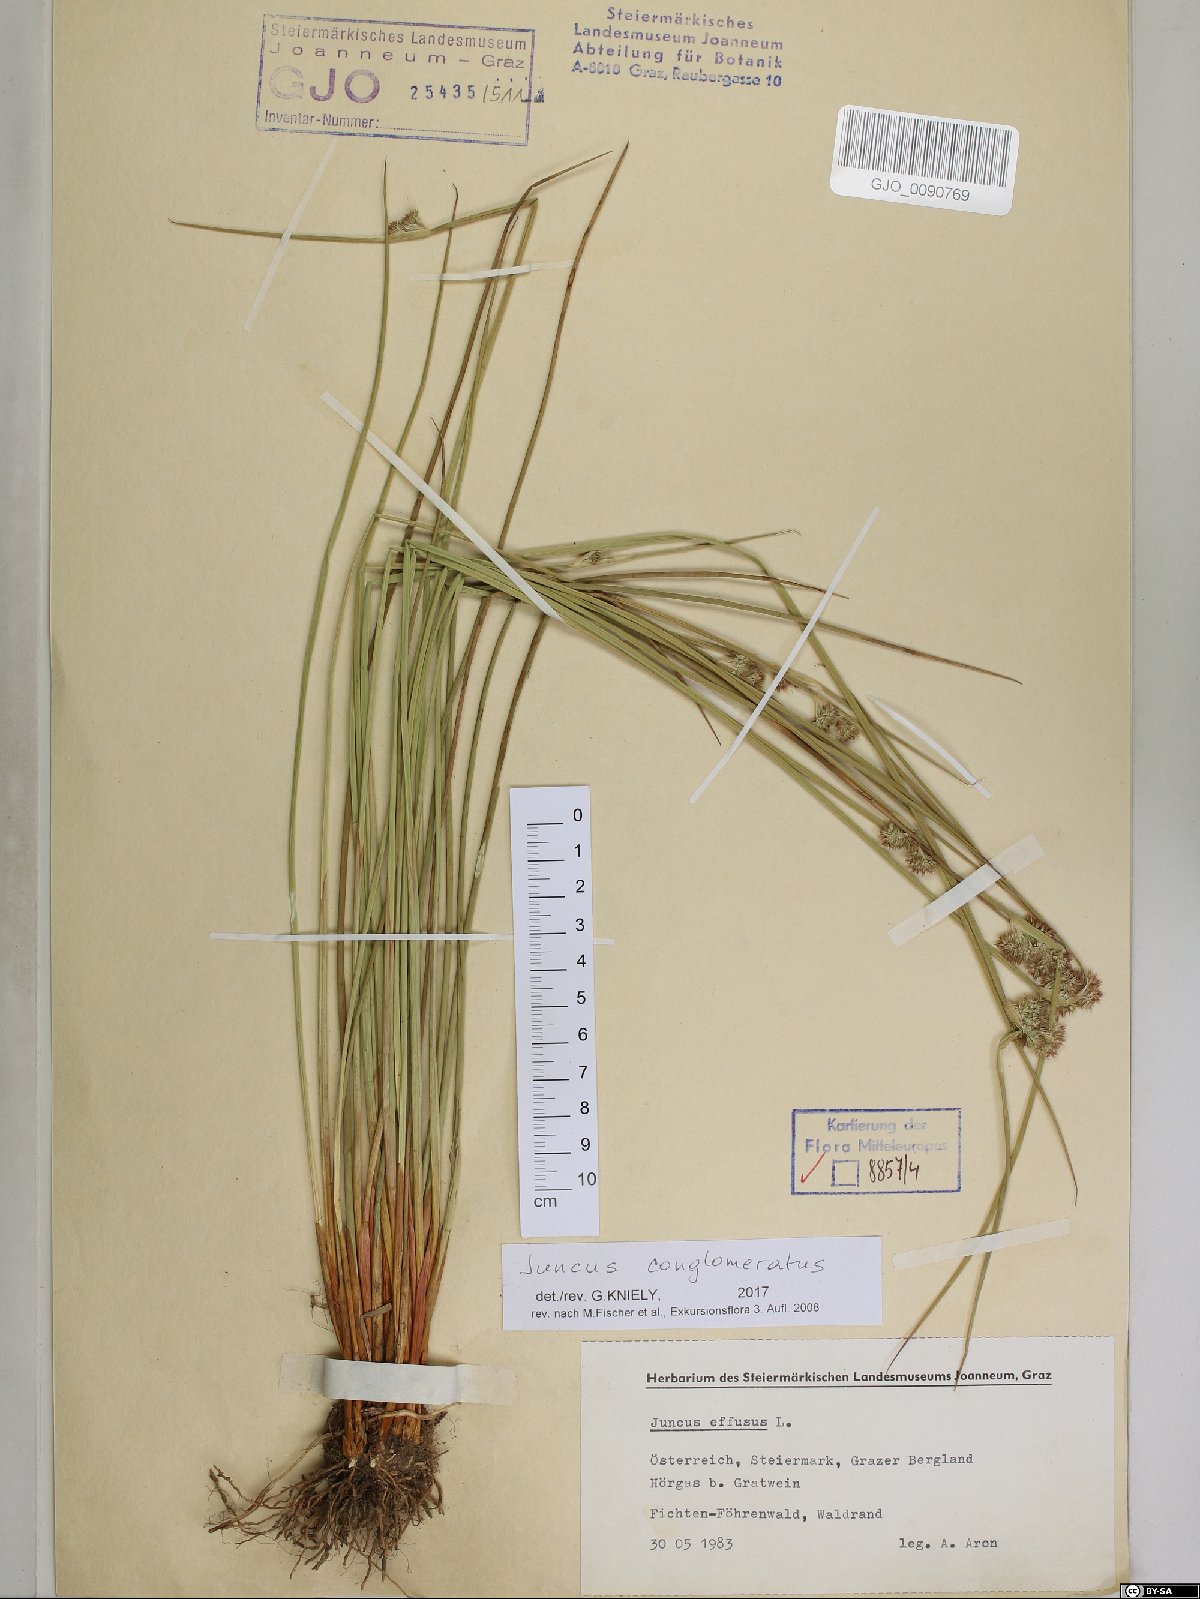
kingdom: Plantae
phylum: Tracheophyta
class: Liliopsida
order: Poales
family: Juncaceae
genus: Juncus
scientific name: Juncus conglomeratus
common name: Compact rush
